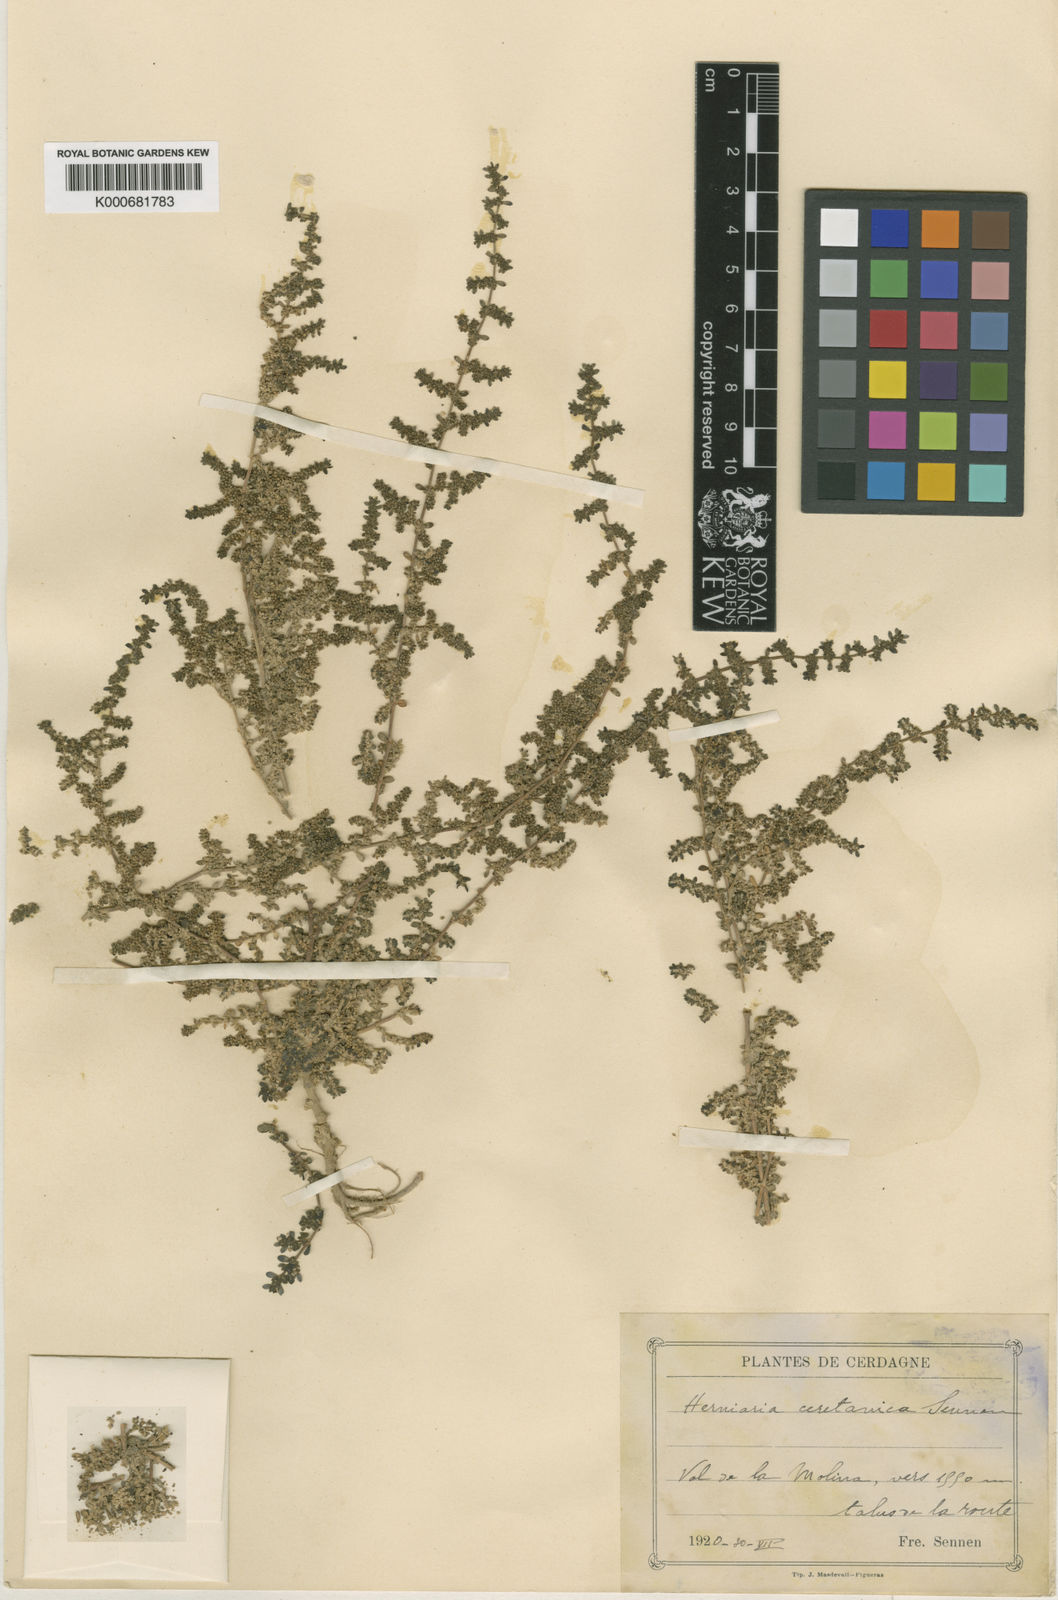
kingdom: Plantae
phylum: Tracheophyta
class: Magnoliopsida
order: Caryophyllales
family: Caryophyllaceae
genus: Herniaria
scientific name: Herniaria glabra
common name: Smooth rupturewort
